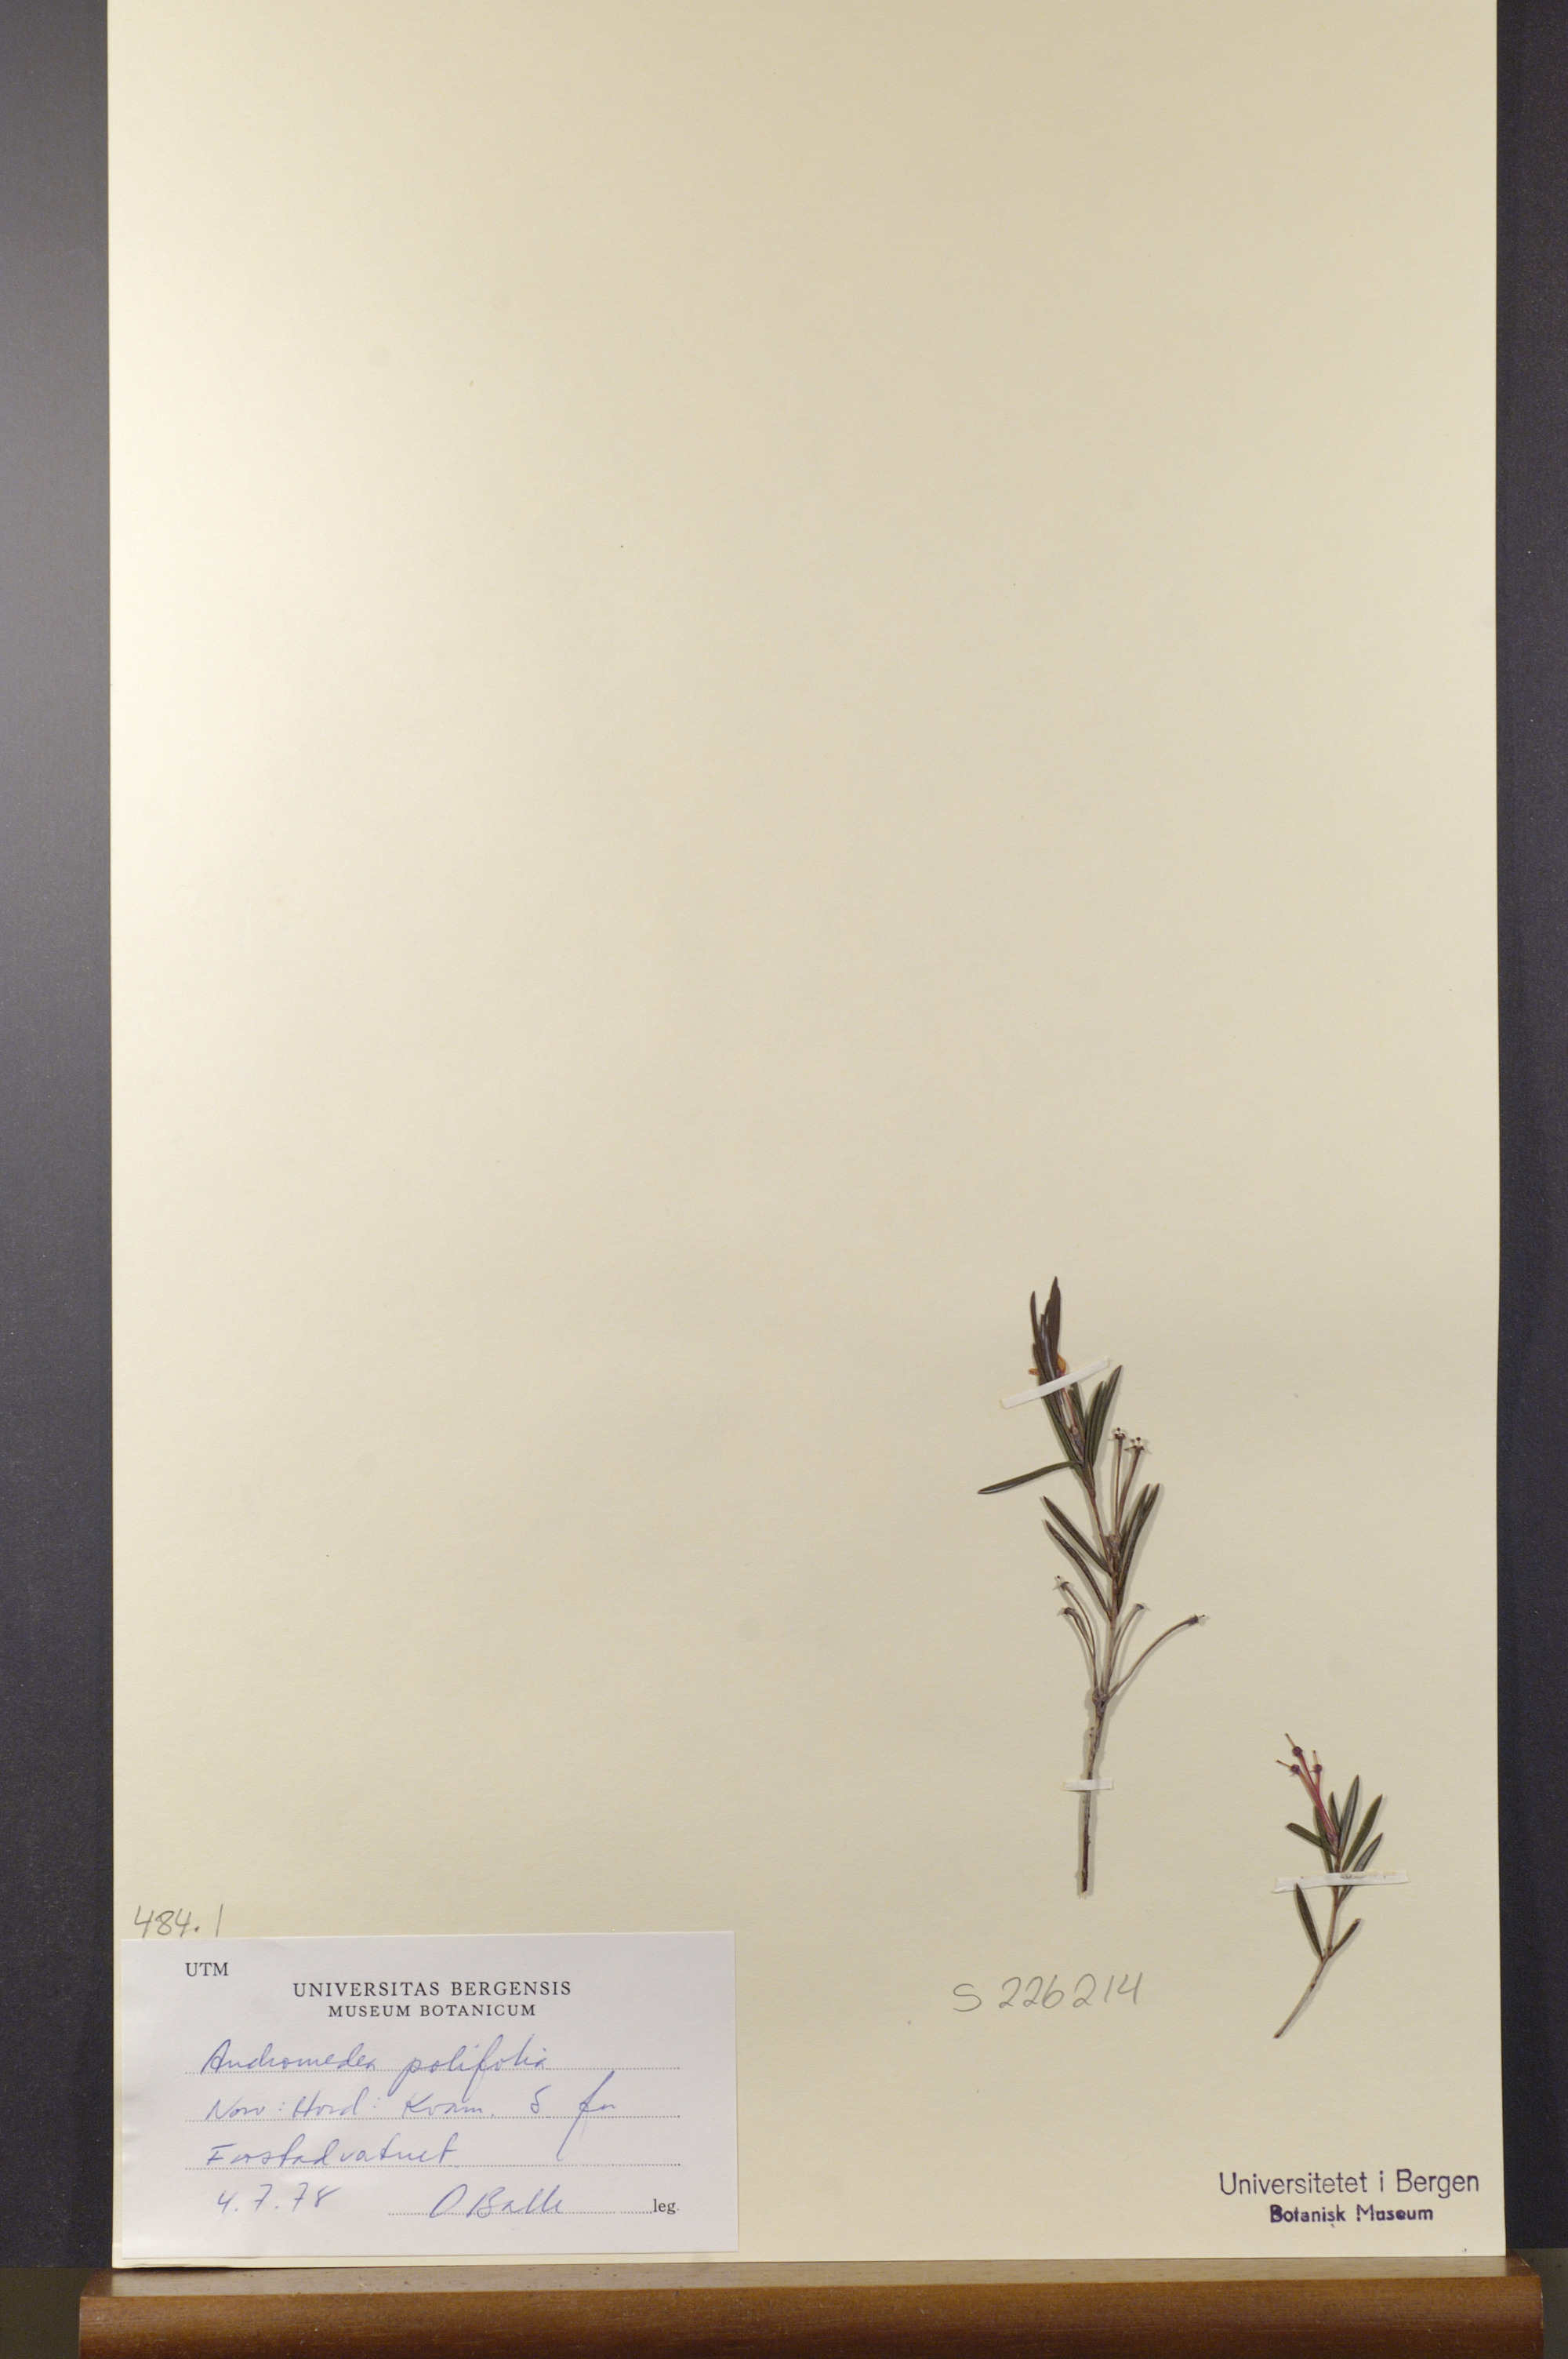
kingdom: Plantae
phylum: Tracheophyta
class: Magnoliopsida
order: Ericales
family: Ericaceae
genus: Andromeda
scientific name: Andromeda polifolia
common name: Bog-rosemary
